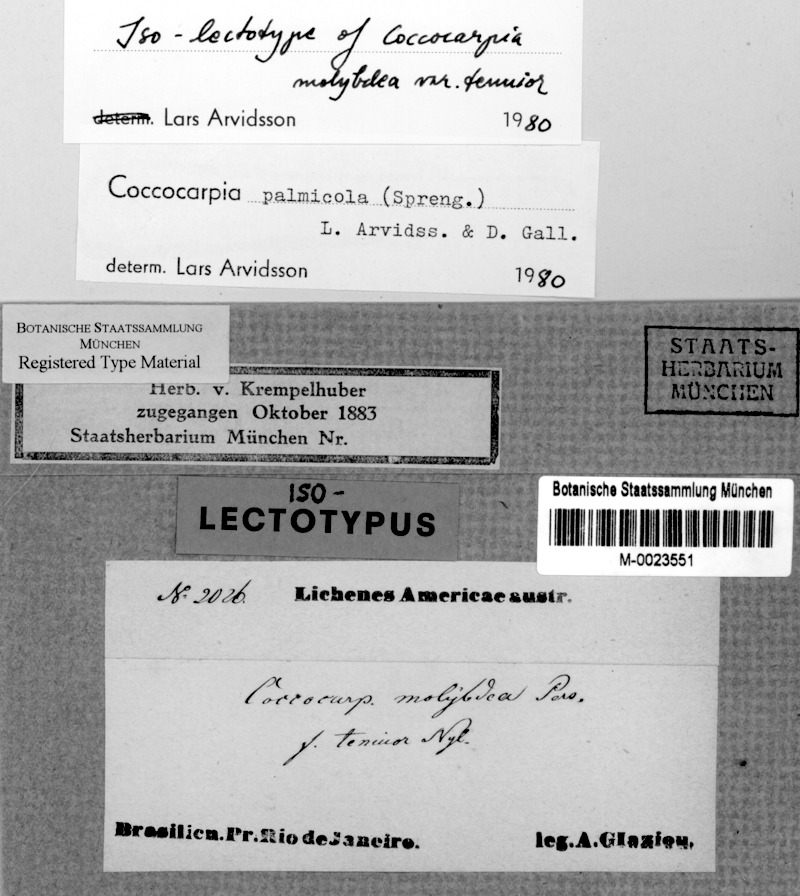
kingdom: Fungi
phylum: Ascomycota
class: Lecanoromycetes
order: Peltigerales
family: Coccocarpiaceae
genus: Coccocarpia
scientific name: Coccocarpia palmicola
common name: Salted shell lichen
